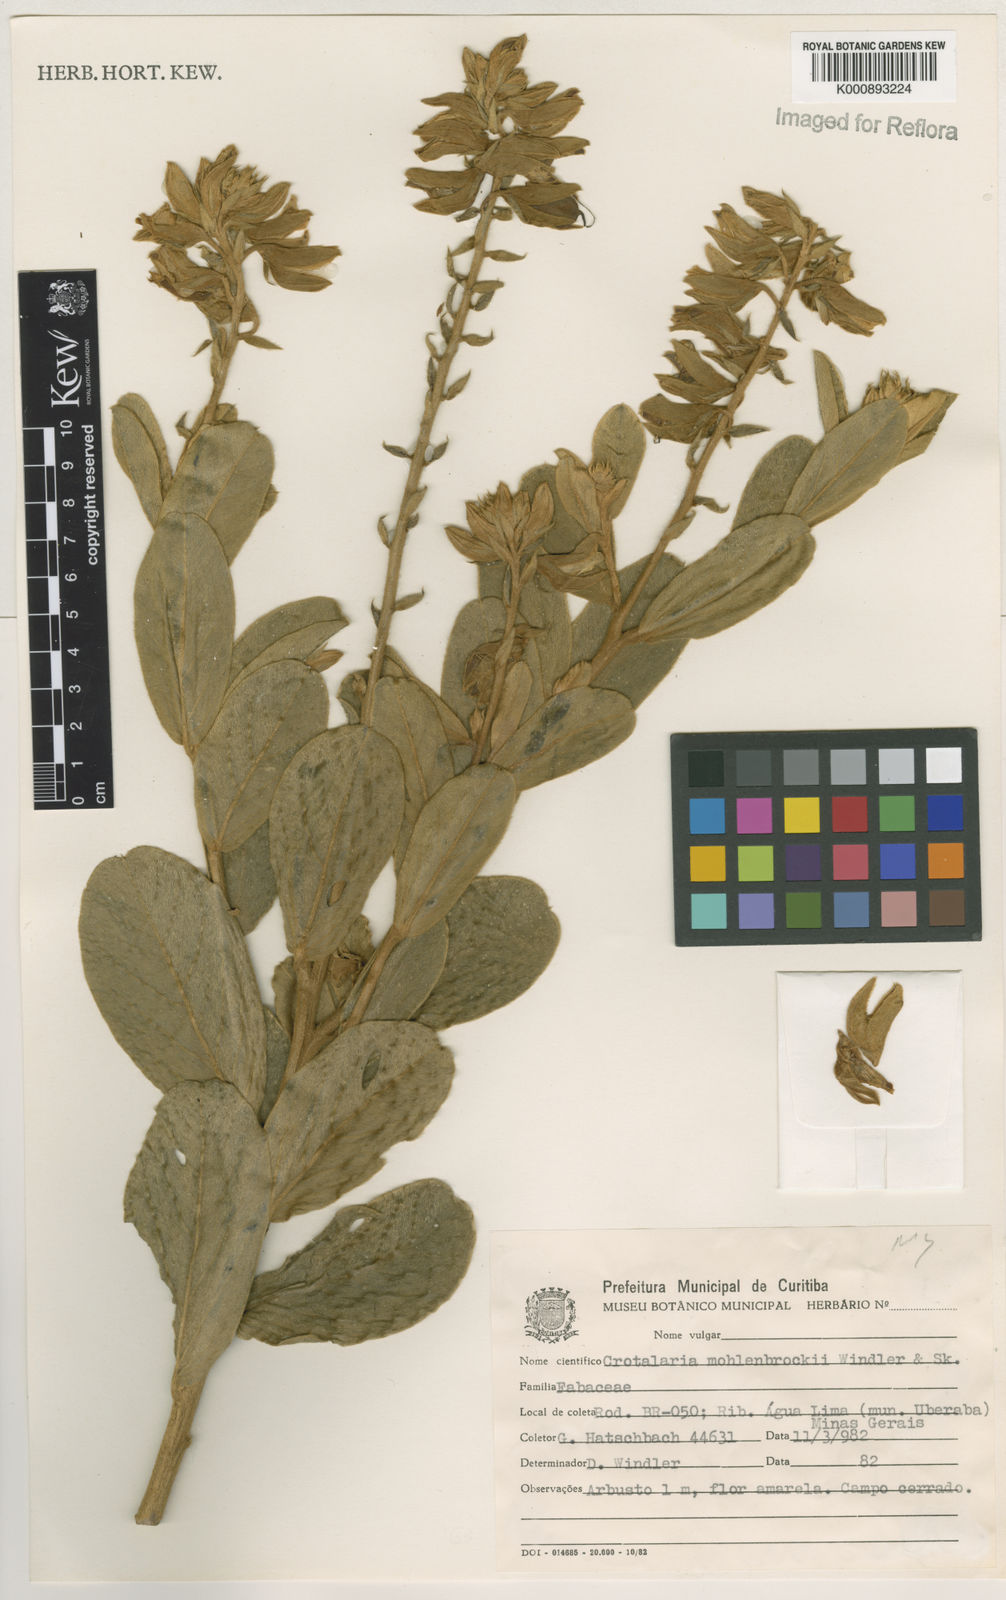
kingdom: Plantae
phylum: Tracheophyta
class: Magnoliopsida
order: Fabales
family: Fabaceae
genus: Crotalaria
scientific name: Crotalaria martiana
